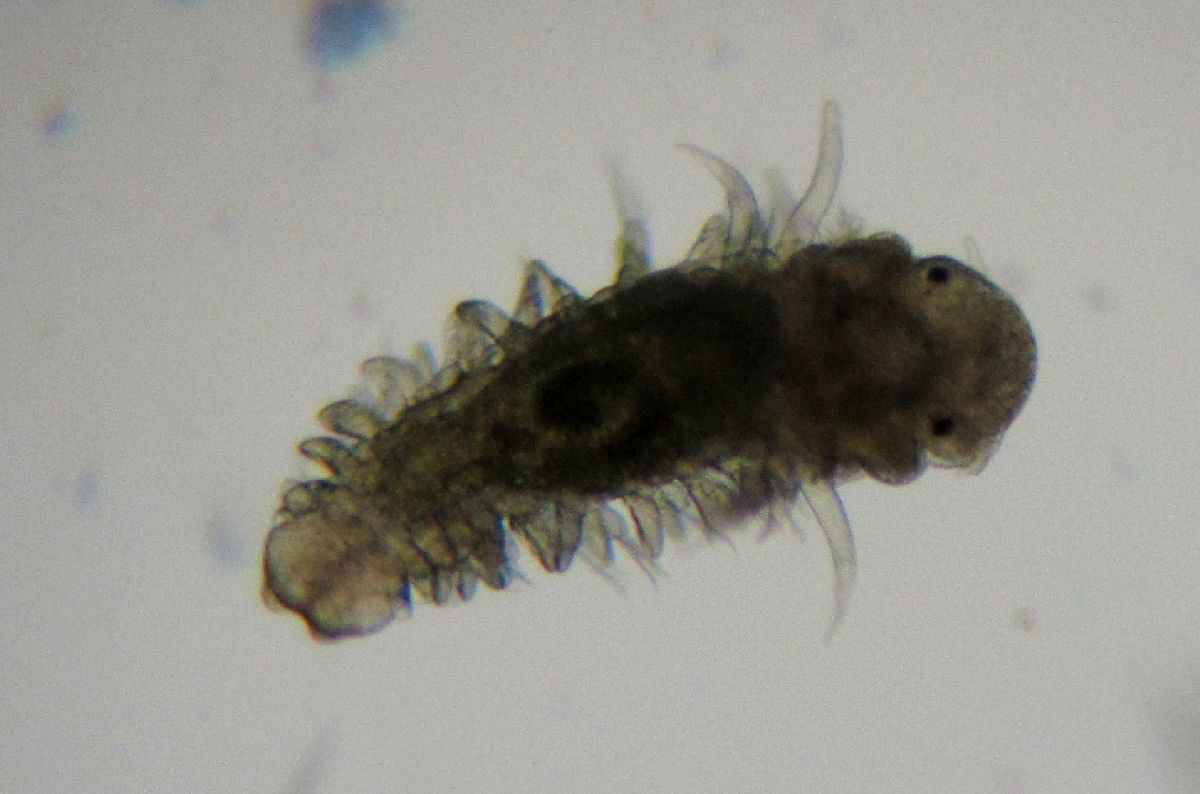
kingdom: Animalia
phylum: Annelida
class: Polychaeta
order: Phyllodocida
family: Phyllodocidae
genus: Phyllodoce
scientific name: Phyllodoce maculata
